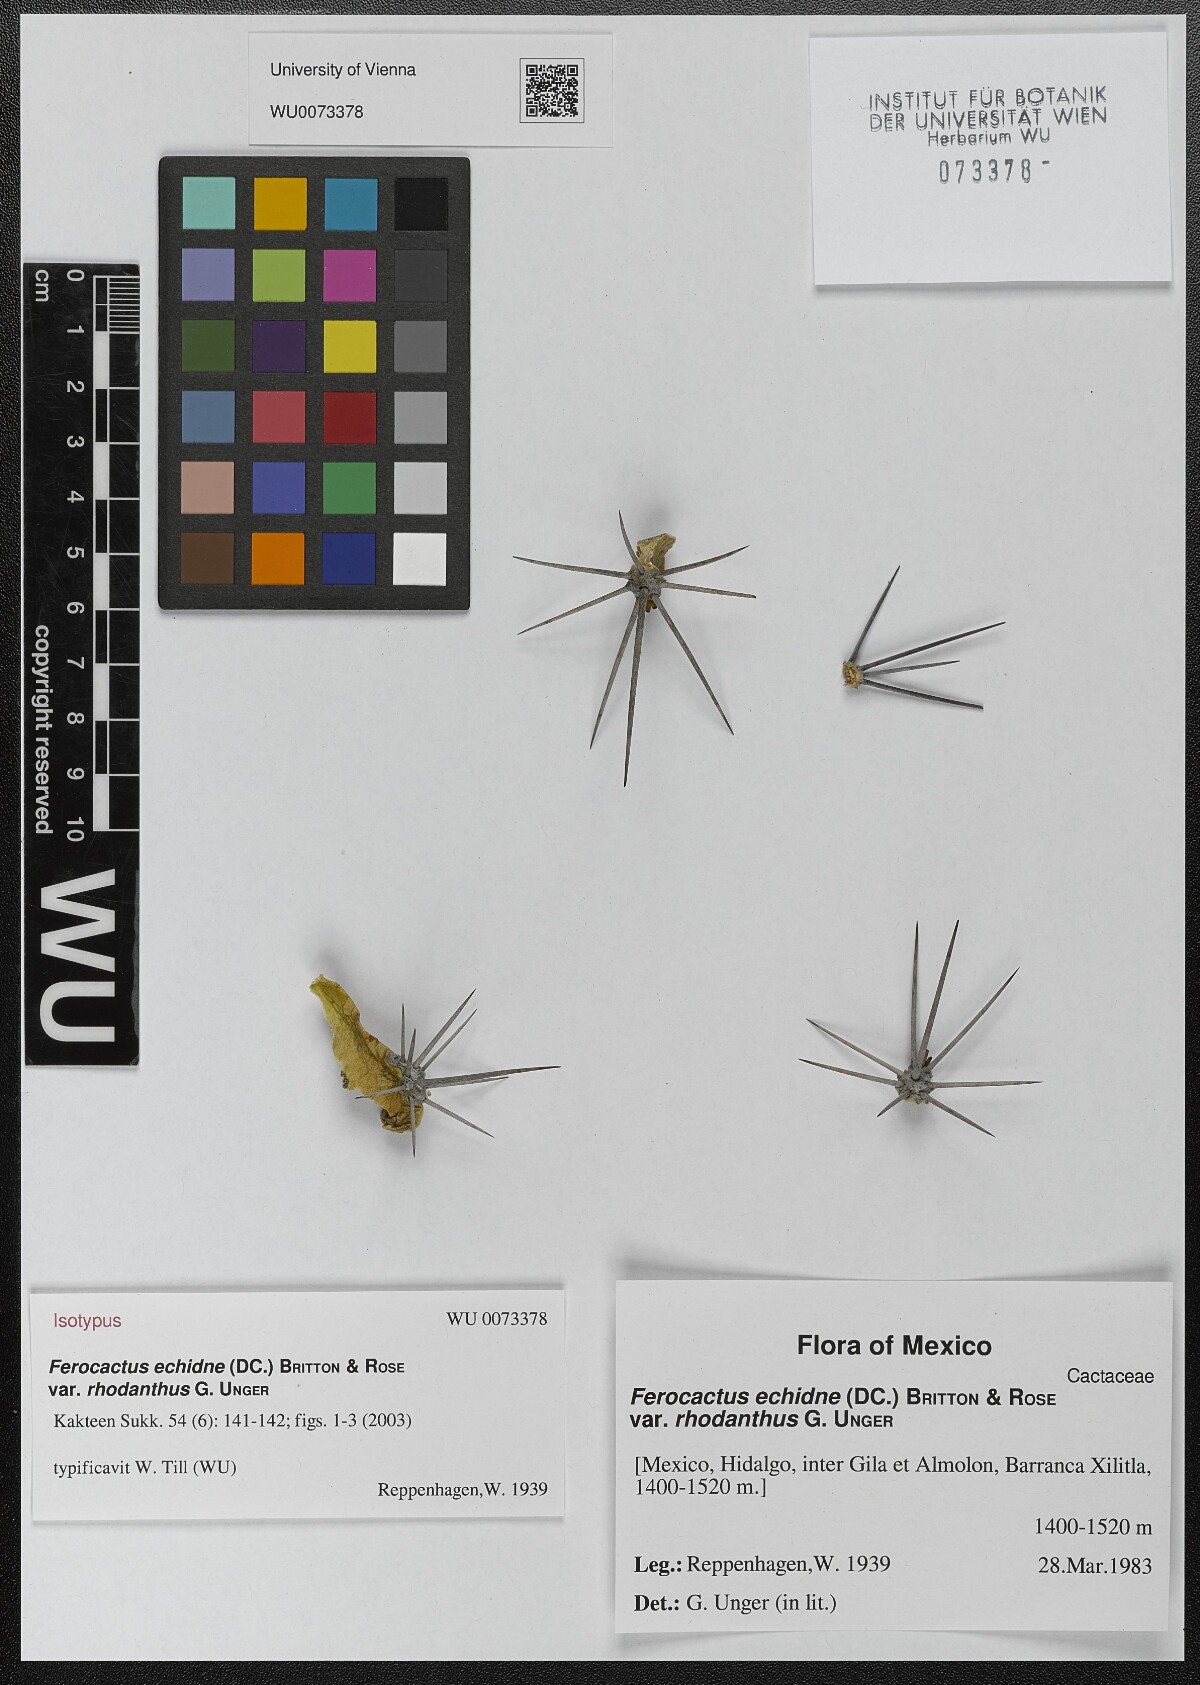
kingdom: Plantae
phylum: Tracheophyta
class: Magnoliopsida
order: Caryophyllales
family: Cactaceae
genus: Parrycactus
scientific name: Parrycactus echidne
